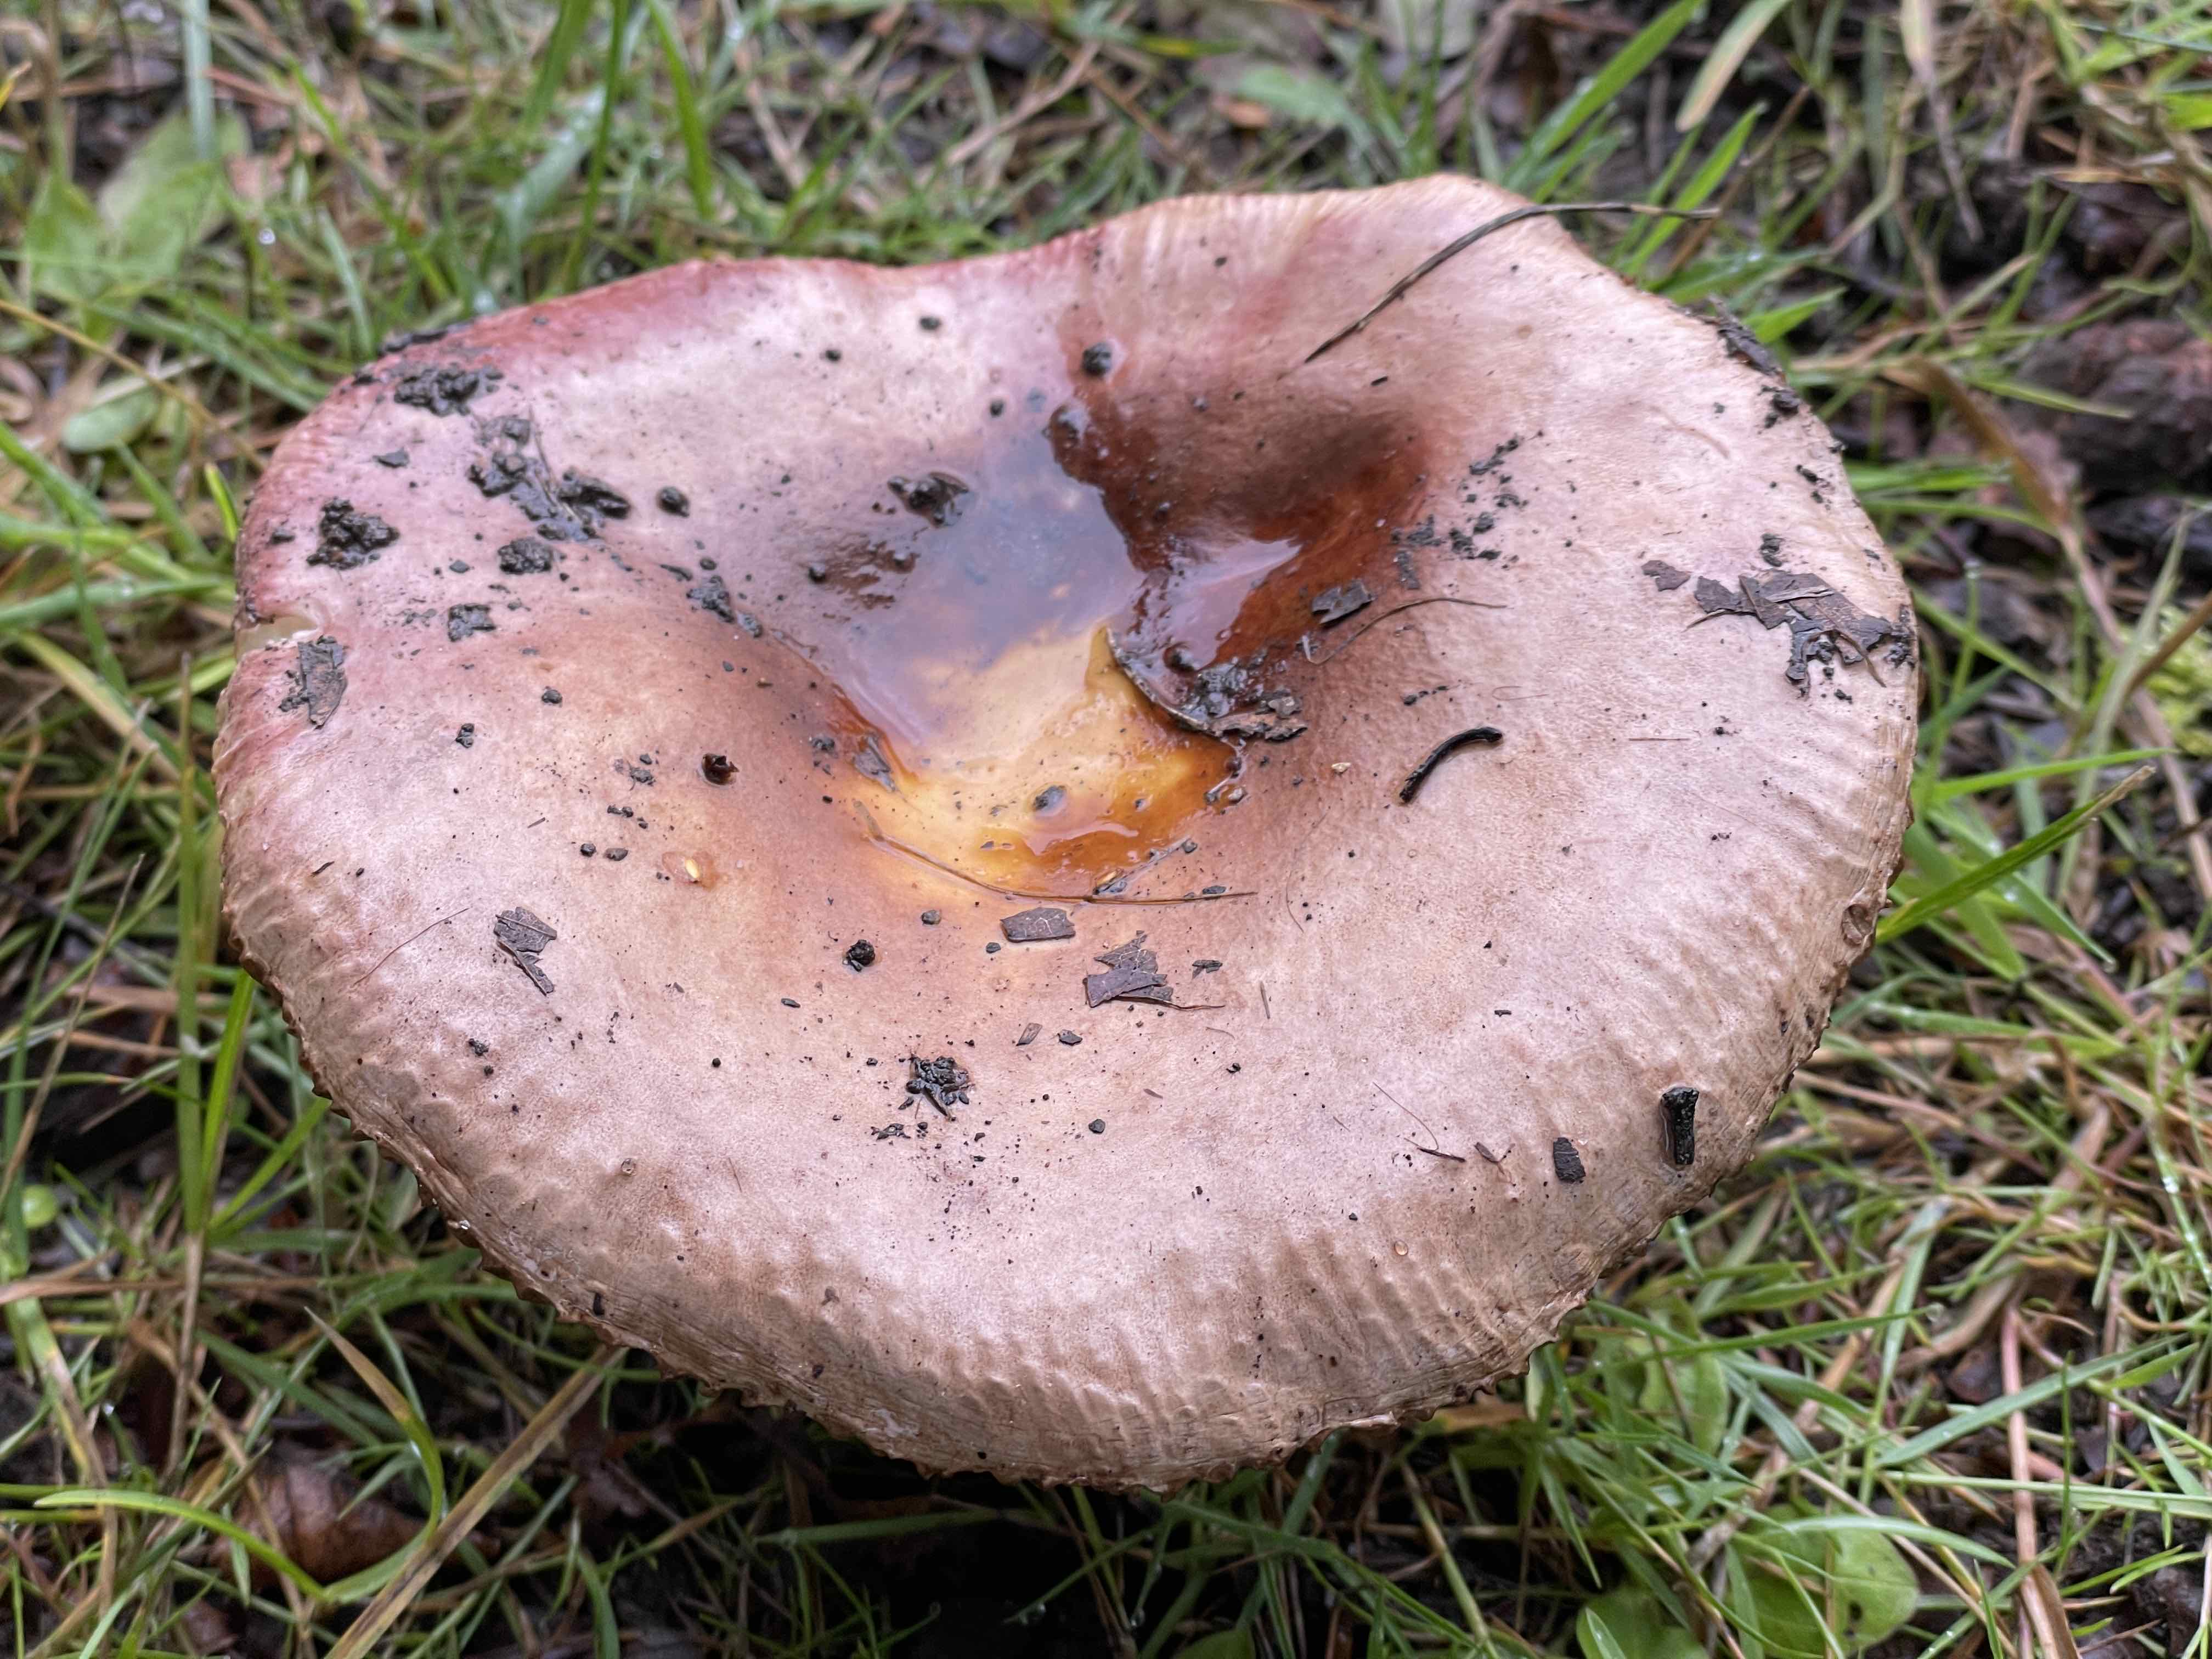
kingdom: Fungi
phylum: Basidiomycota
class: Agaricomycetes
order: Russulales
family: Russulaceae
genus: Russula
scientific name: Russula
